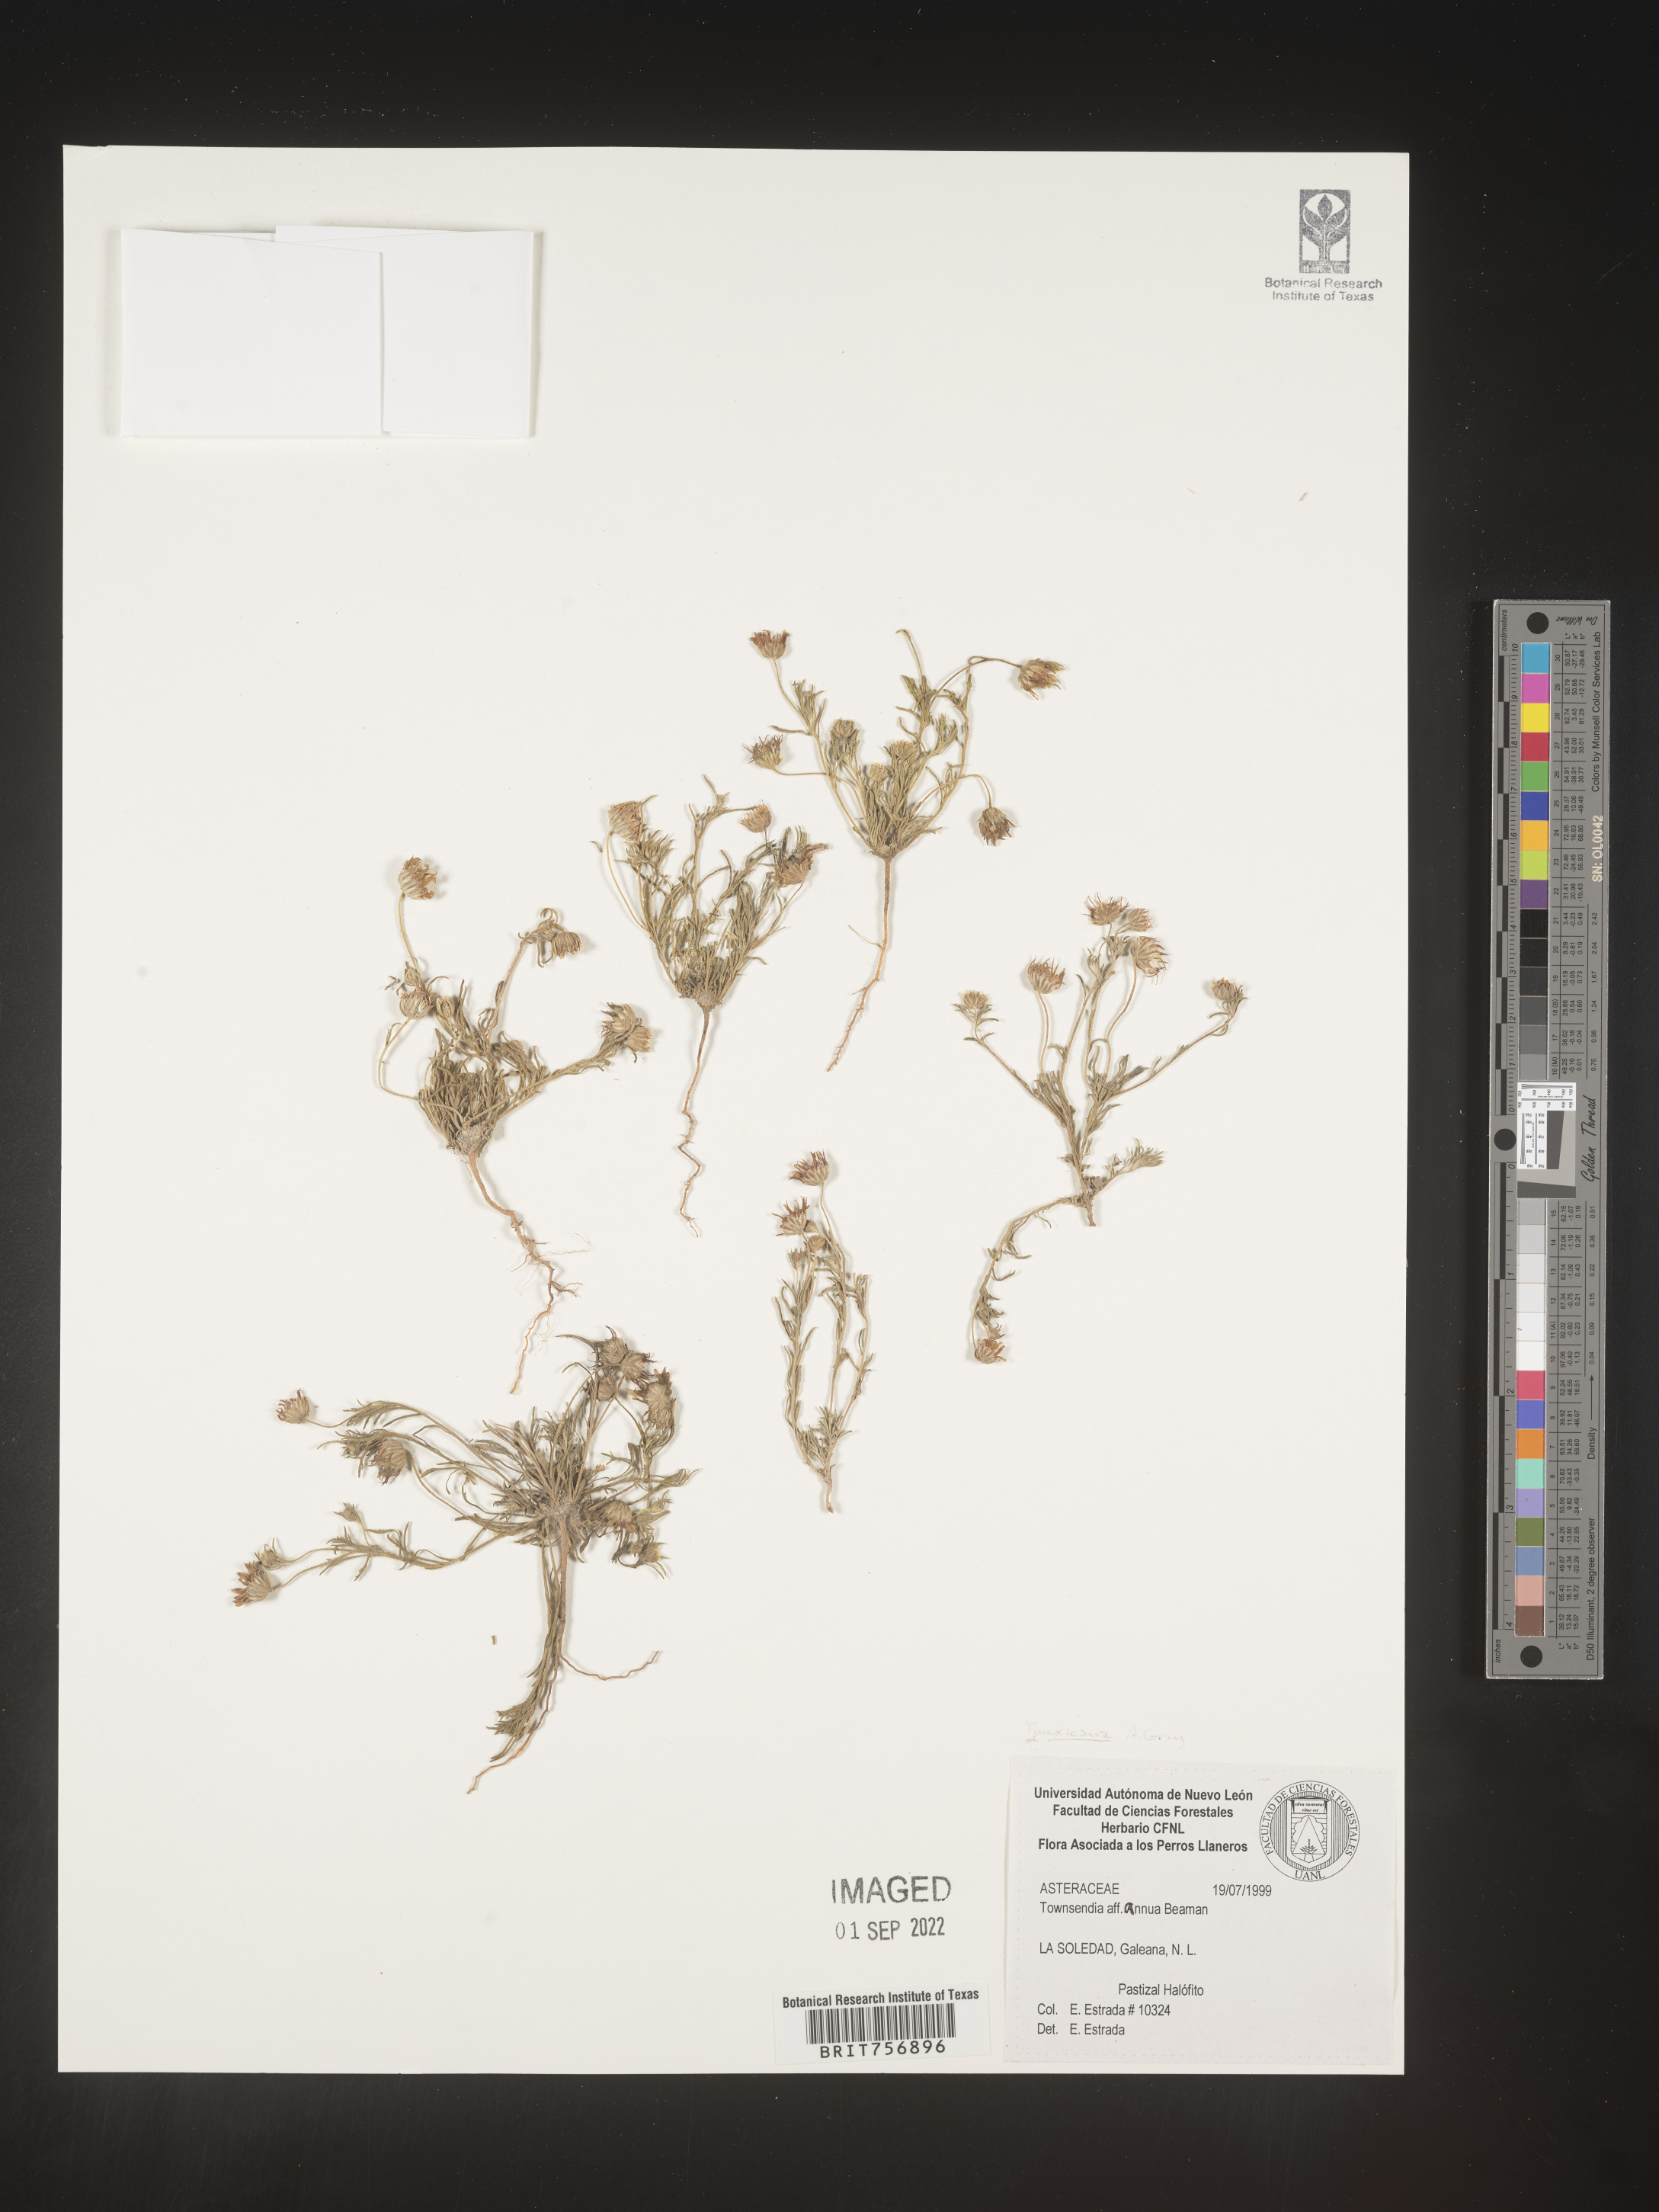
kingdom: Plantae
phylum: Tracheophyta
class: Magnoliopsida
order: Asterales
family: Asteraceae
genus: Townsendia
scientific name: Townsendia
